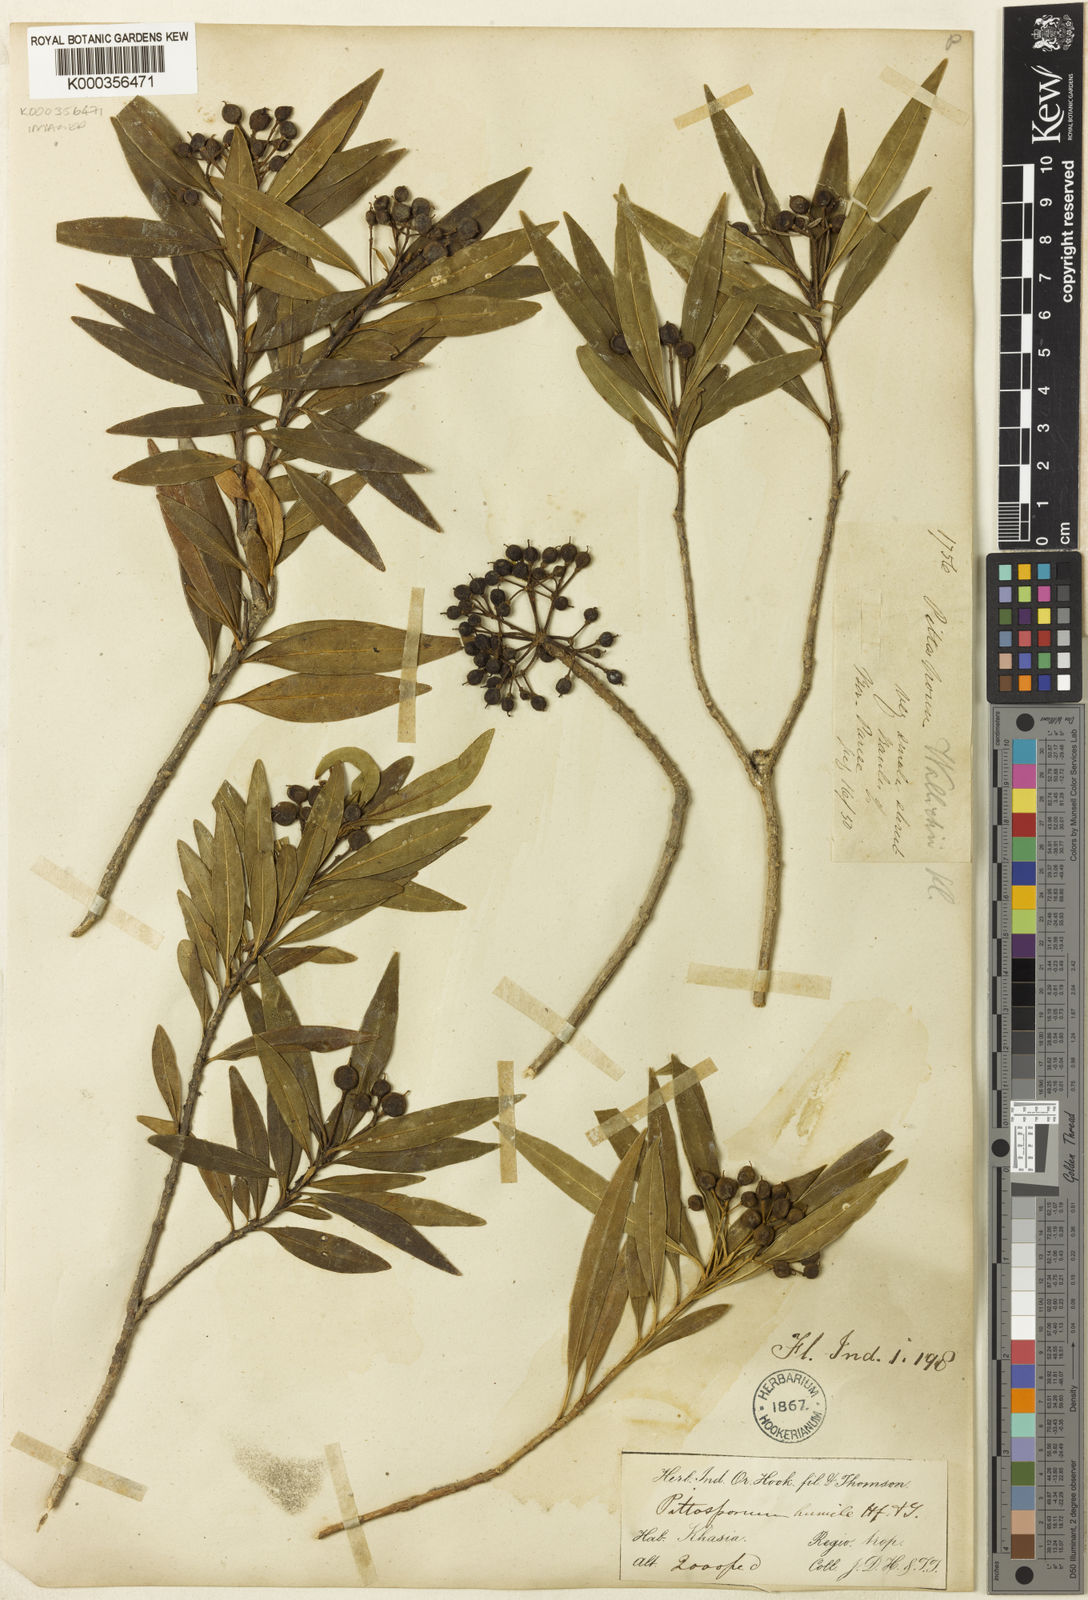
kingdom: Plantae
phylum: Tracheophyta
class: Magnoliopsida
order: Apiales
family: Pittosporaceae
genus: Pittosporum
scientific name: Pittosporum humile
